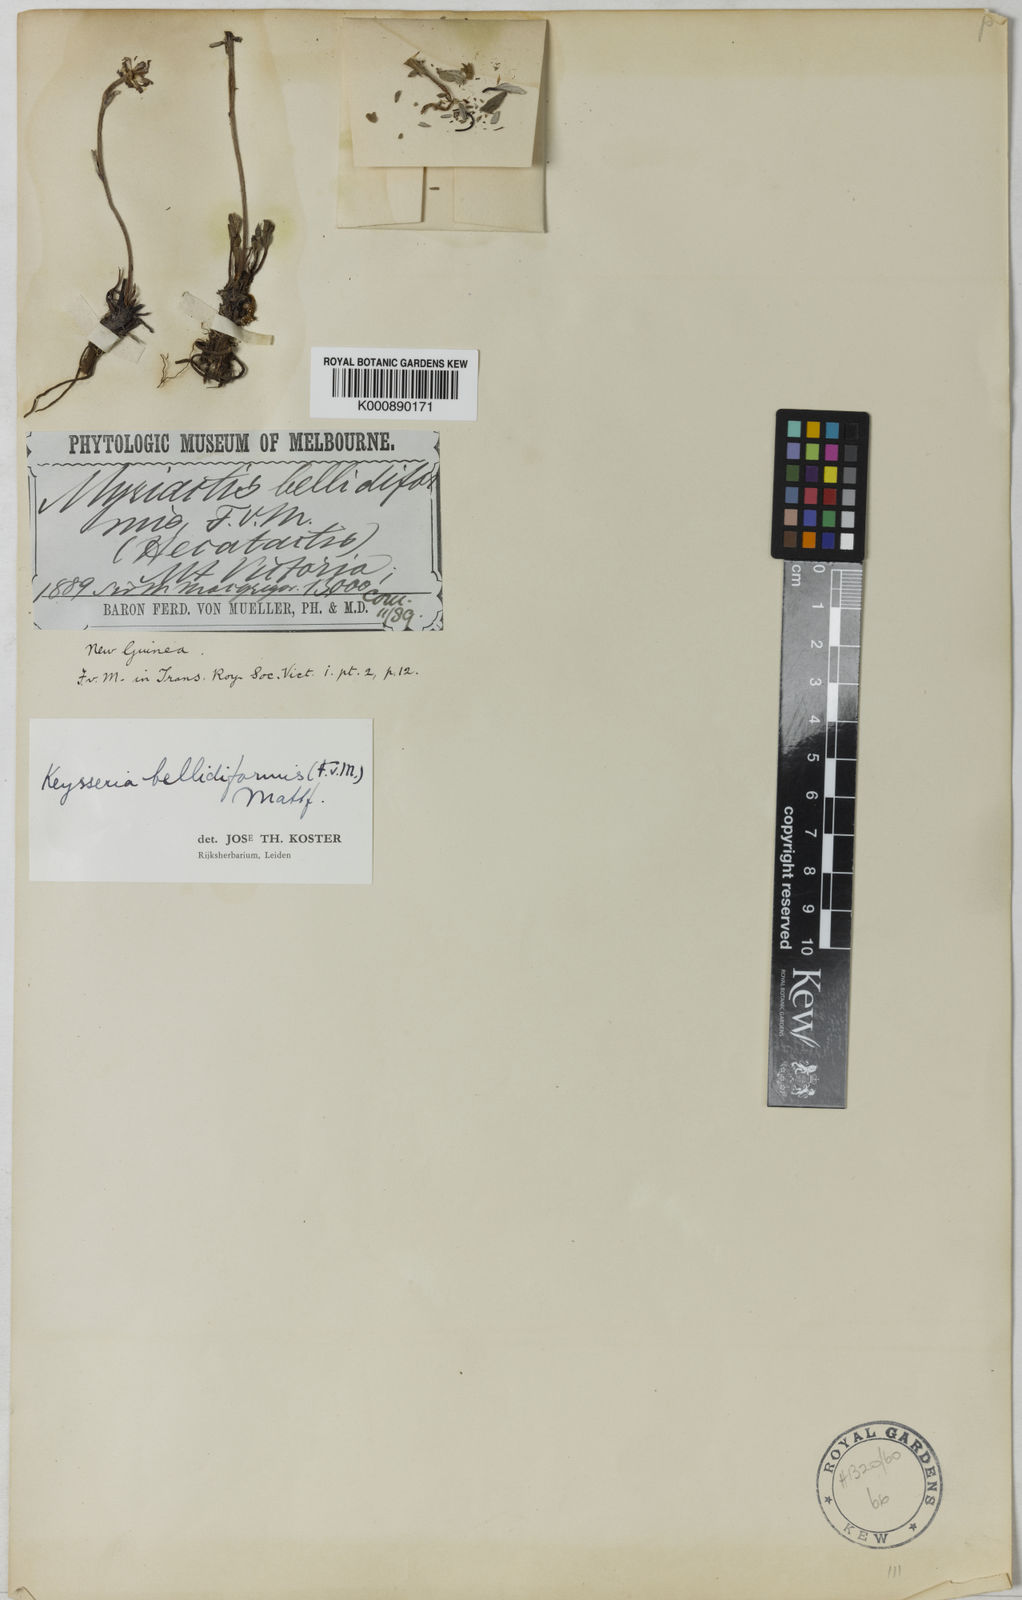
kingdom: Plantae
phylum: Tracheophyta
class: Magnoliopsida
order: Asterales
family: Asteraceae
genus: Keysseria
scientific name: Keysseria bellidiformis
